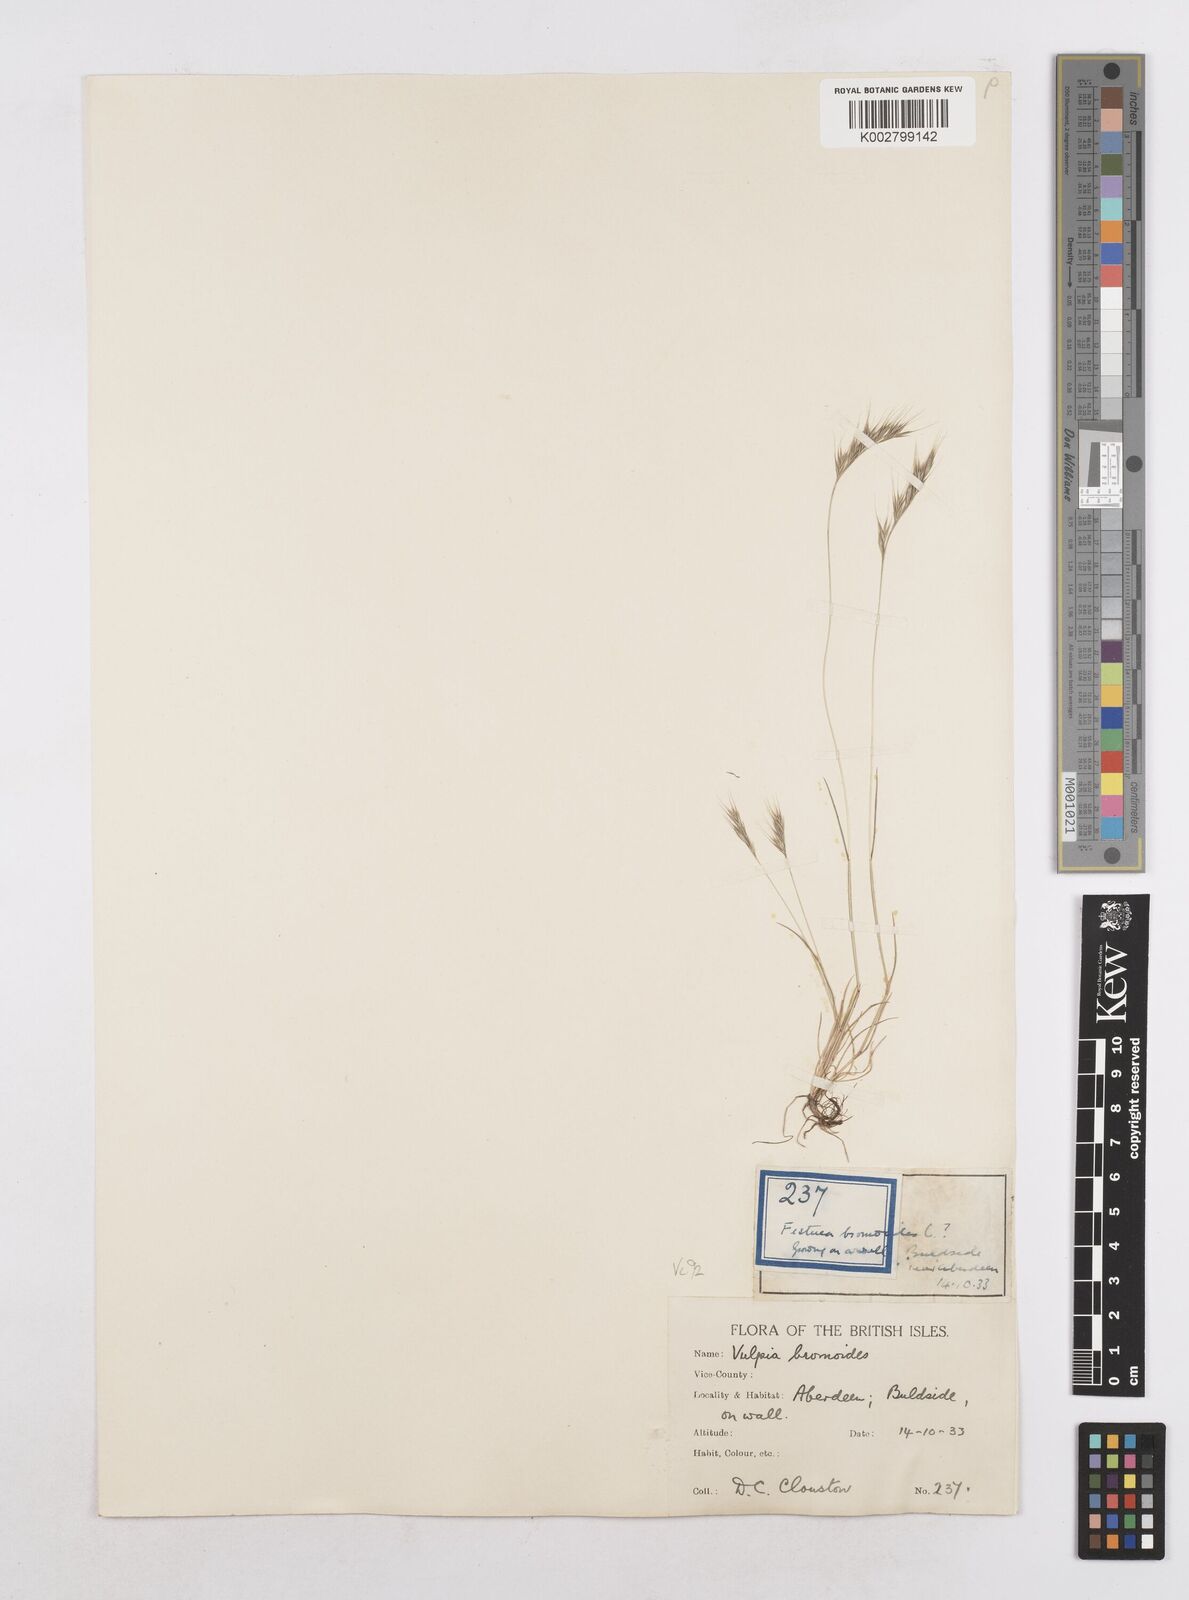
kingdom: Plantae
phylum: Tracheophyta
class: Liliopsida
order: Poales
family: Poaceae
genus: Festuca
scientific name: Festuca bromoides
